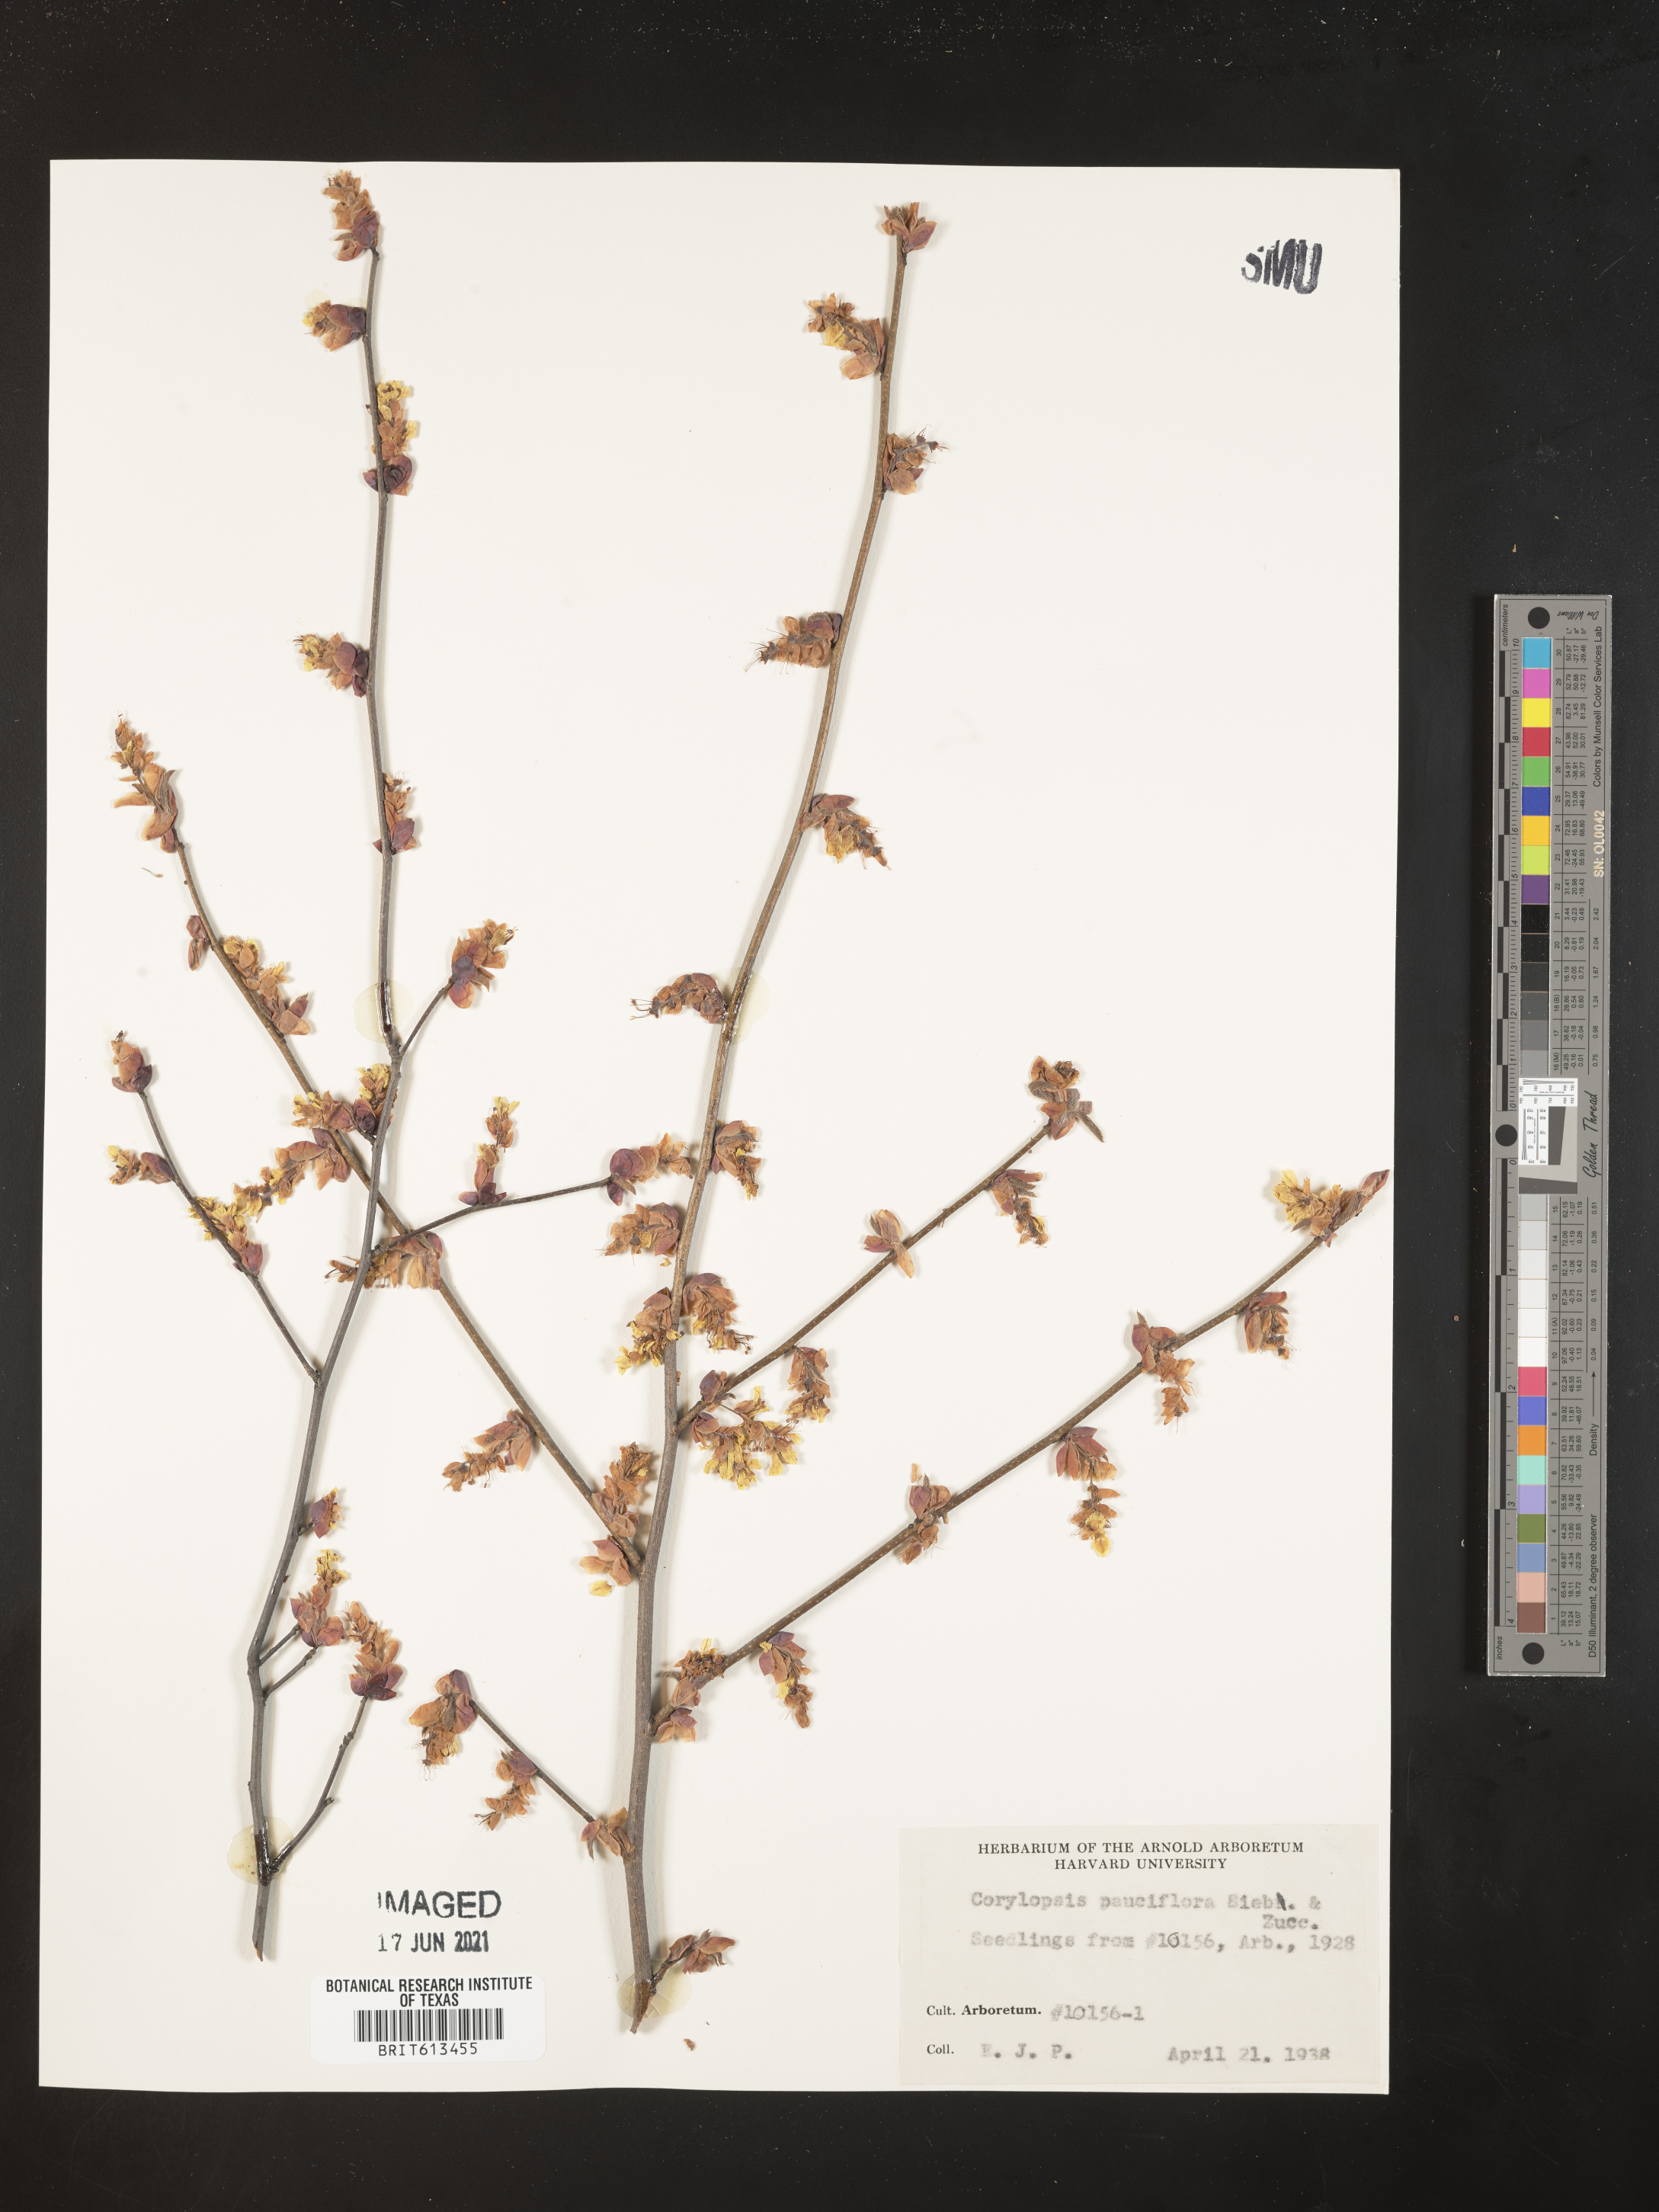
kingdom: Plantae
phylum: Tracheophyta
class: Magnoliopsida
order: Saxifragales
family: Hamamelidaceae
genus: Corylopsis
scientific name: Corylopsis pauciflora
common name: Buttercup winter-hazel
